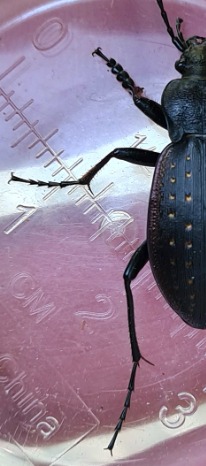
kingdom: Animalia
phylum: Arthropoda
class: Insecta
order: Coleoptera
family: Carabidae
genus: Carabus
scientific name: Carabus hortensis
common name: Guldpletløber
